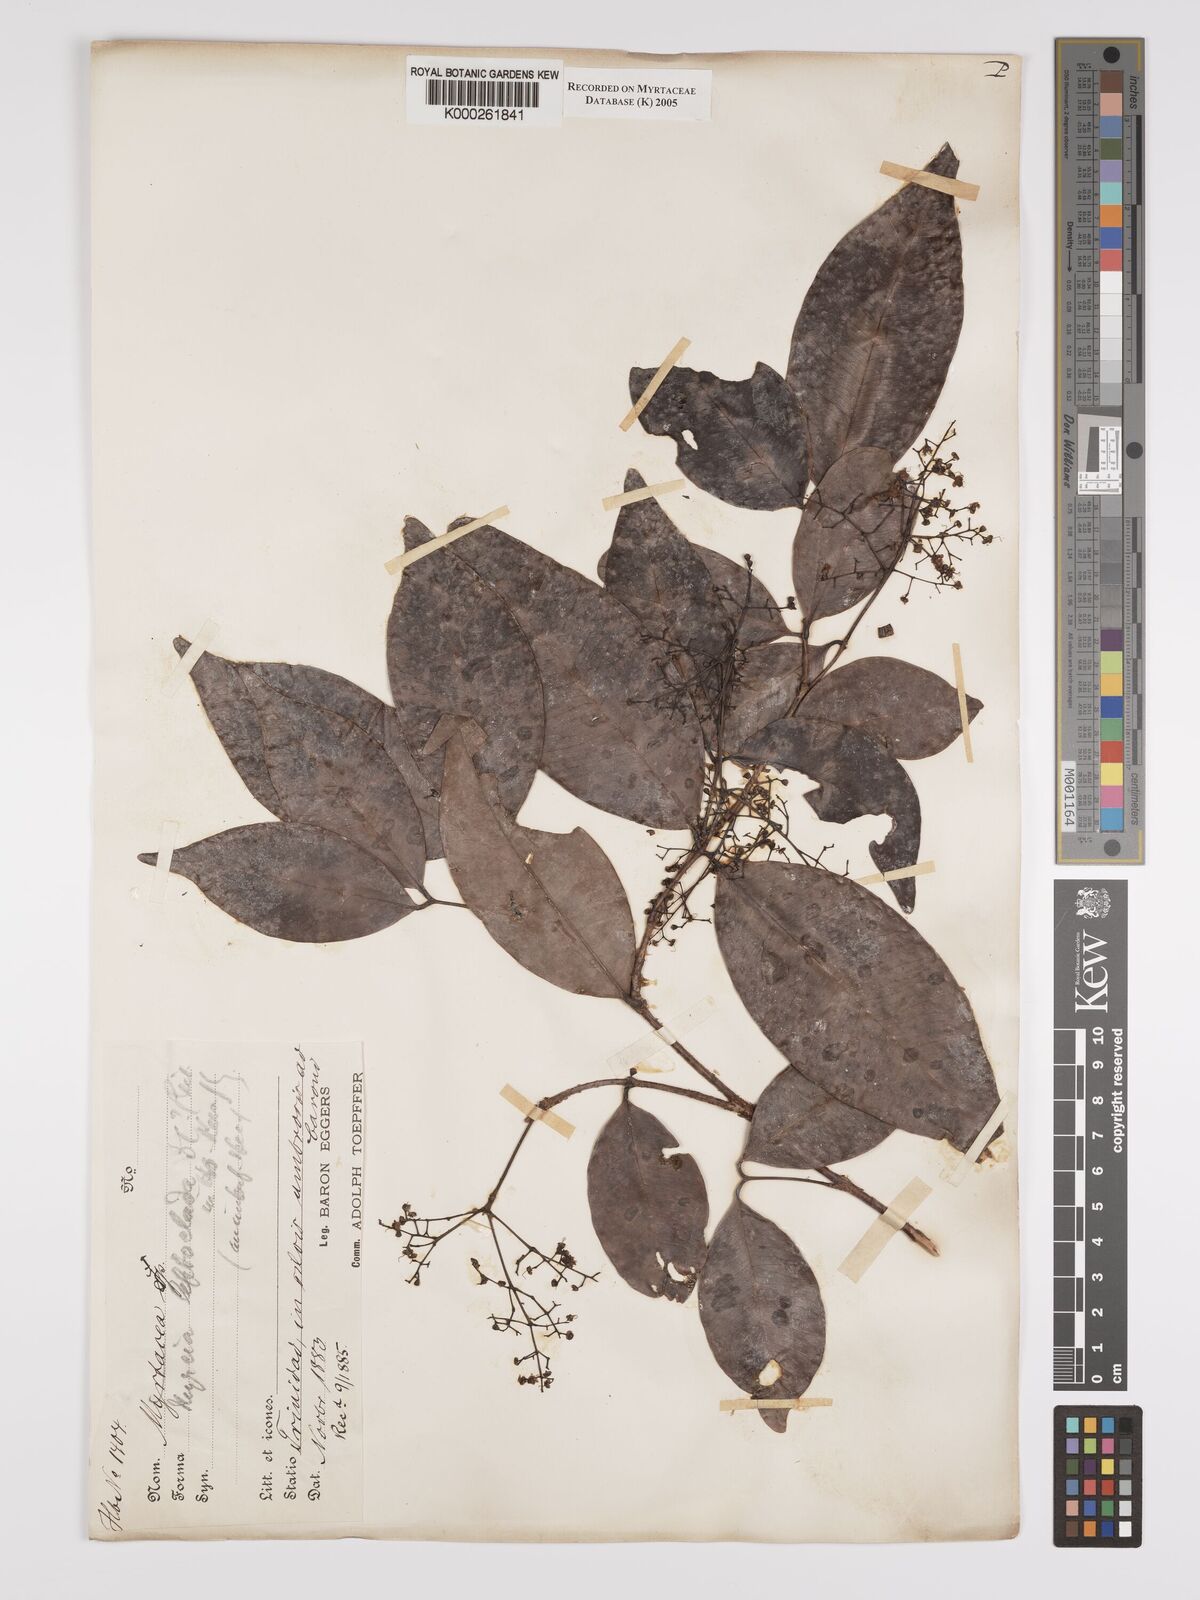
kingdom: Plantae
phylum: Tracheophyta
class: Magnoliopsida
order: Myrtales
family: Myrtaceae
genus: Myrcia
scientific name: Myrcia amazonica
